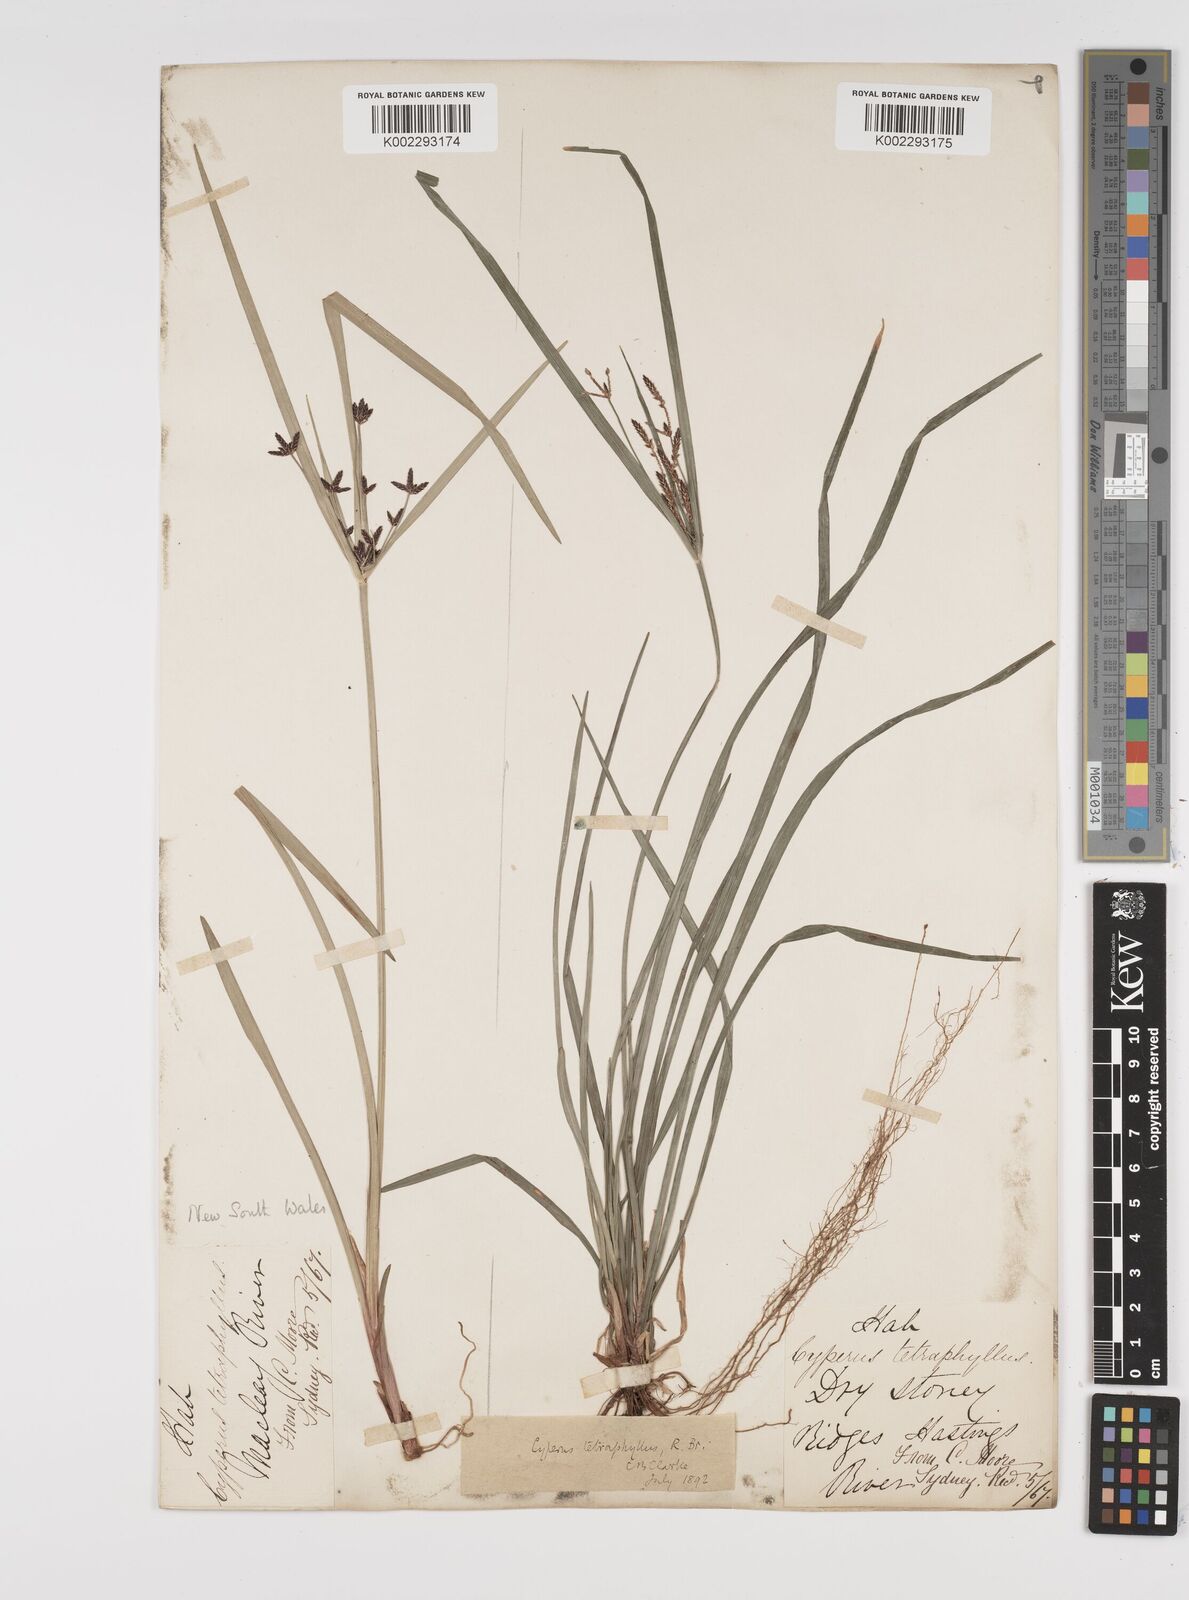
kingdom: Plantae
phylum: Tracheophyta
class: Liliopsida
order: Poales
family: Cyperaceae
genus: Cyperus
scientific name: Cyperus tetraphyllus
